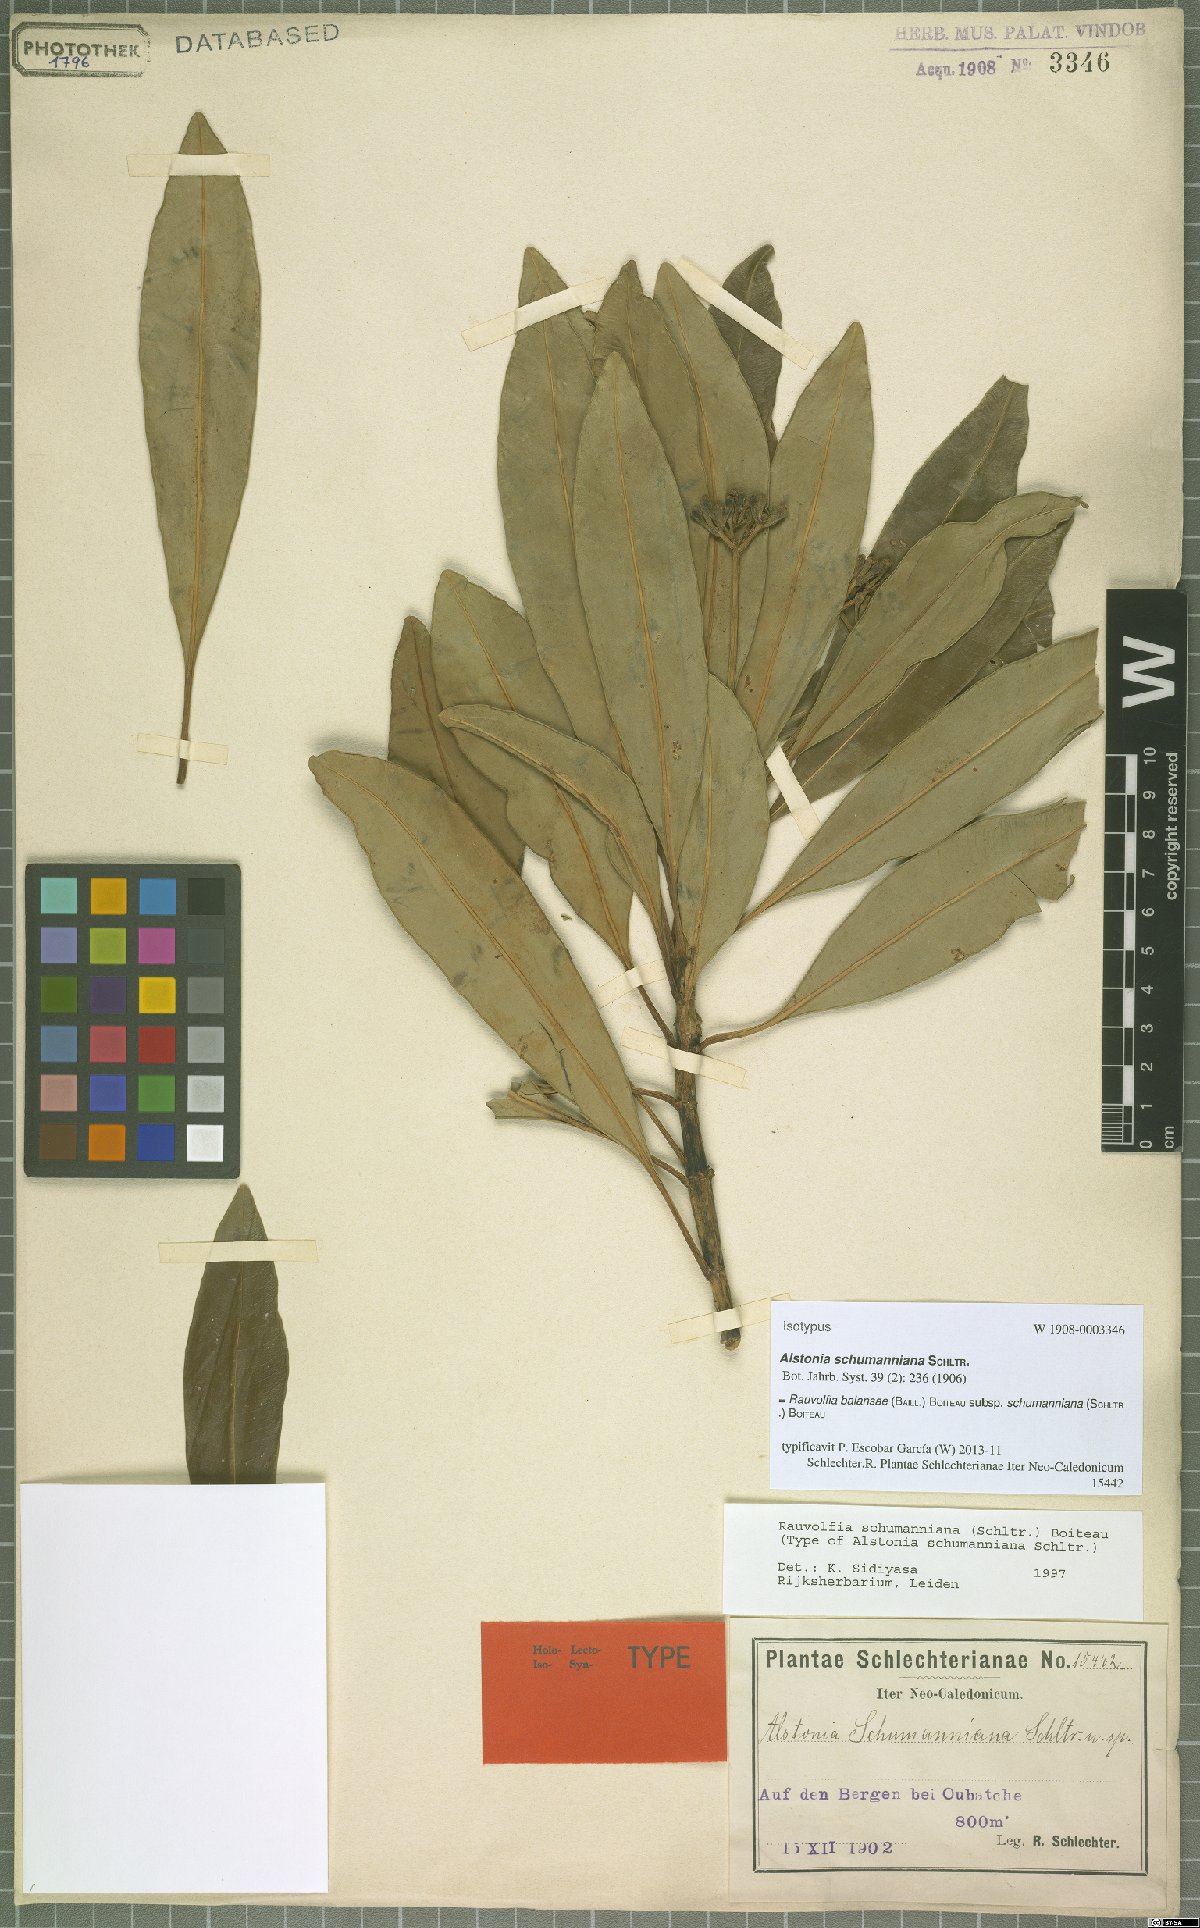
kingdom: Plantae
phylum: Tracheophyta
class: Magnoliopsida
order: Gentianales
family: Apocynaceae
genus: Rauvolfia
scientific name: Rauvolfia balansae
